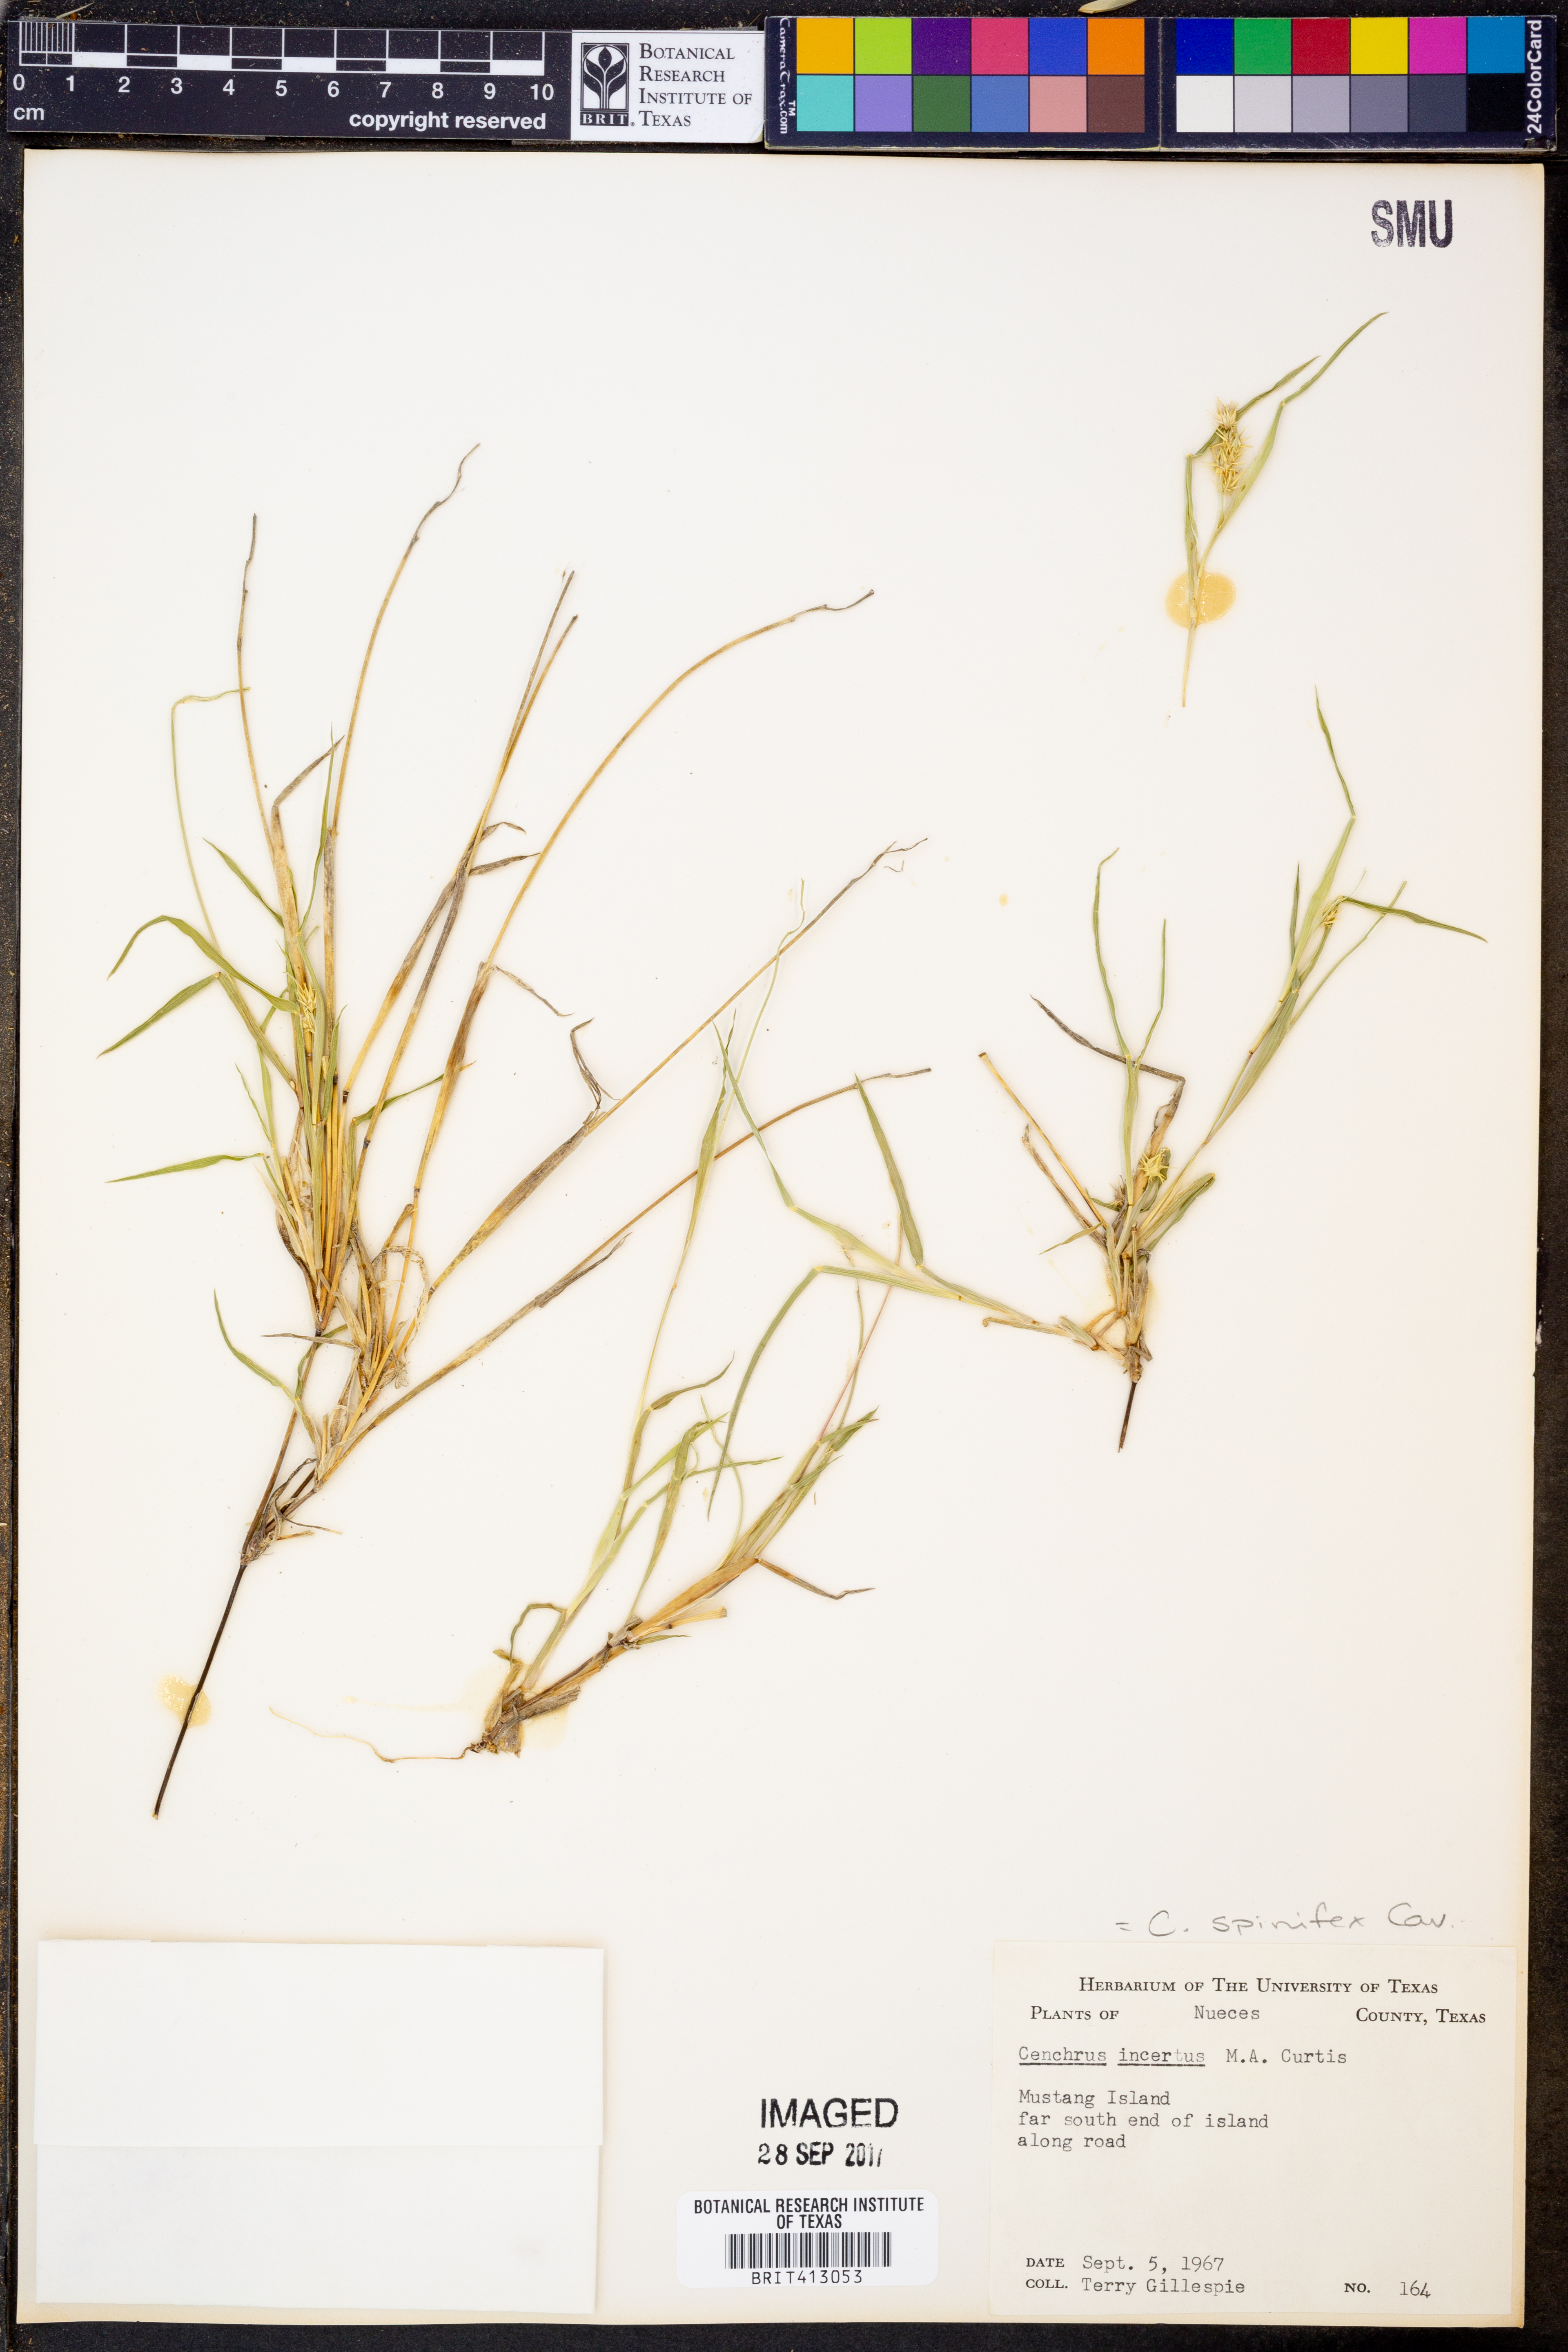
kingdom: Plantae
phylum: Tracheophyta
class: Liliopsida
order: Poales
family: Poaceae
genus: Cenchrus
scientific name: Cenchrus spinifex
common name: Coast sandbur
